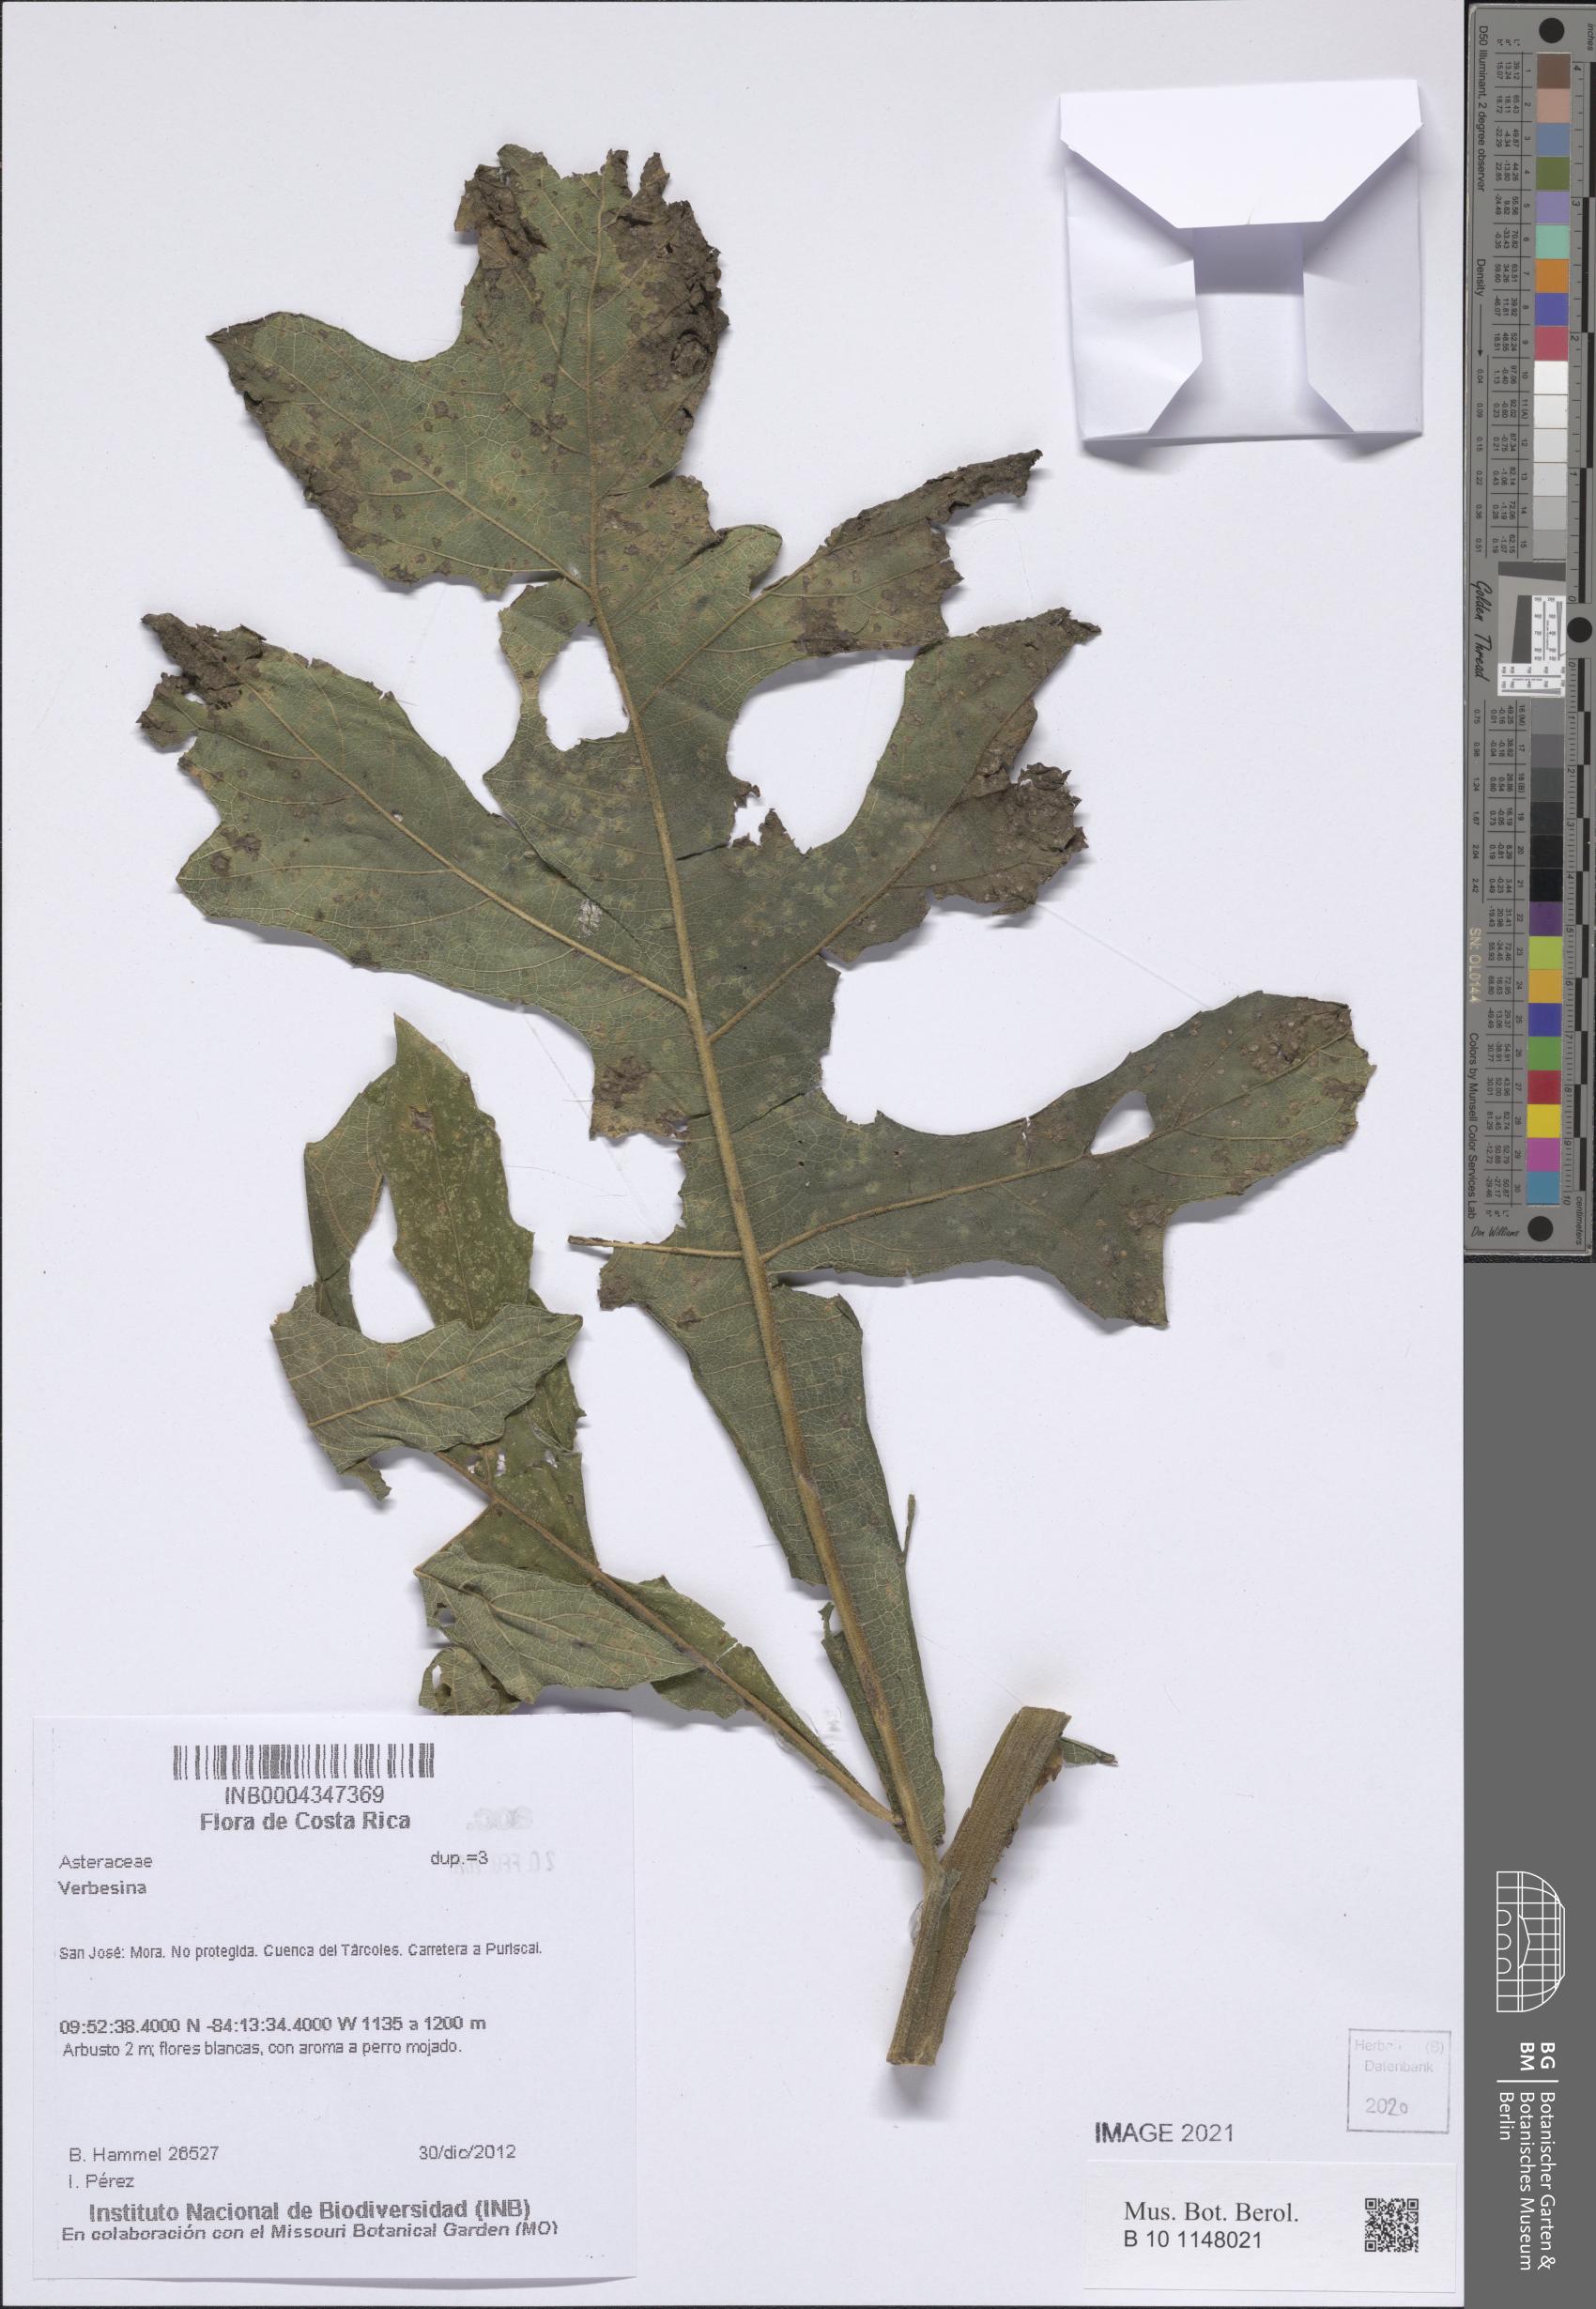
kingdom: Plantae
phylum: Tracheophyta
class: Magnoliopsida
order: Asterales
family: Asteraceae
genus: Verbesina
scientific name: Verbesina
